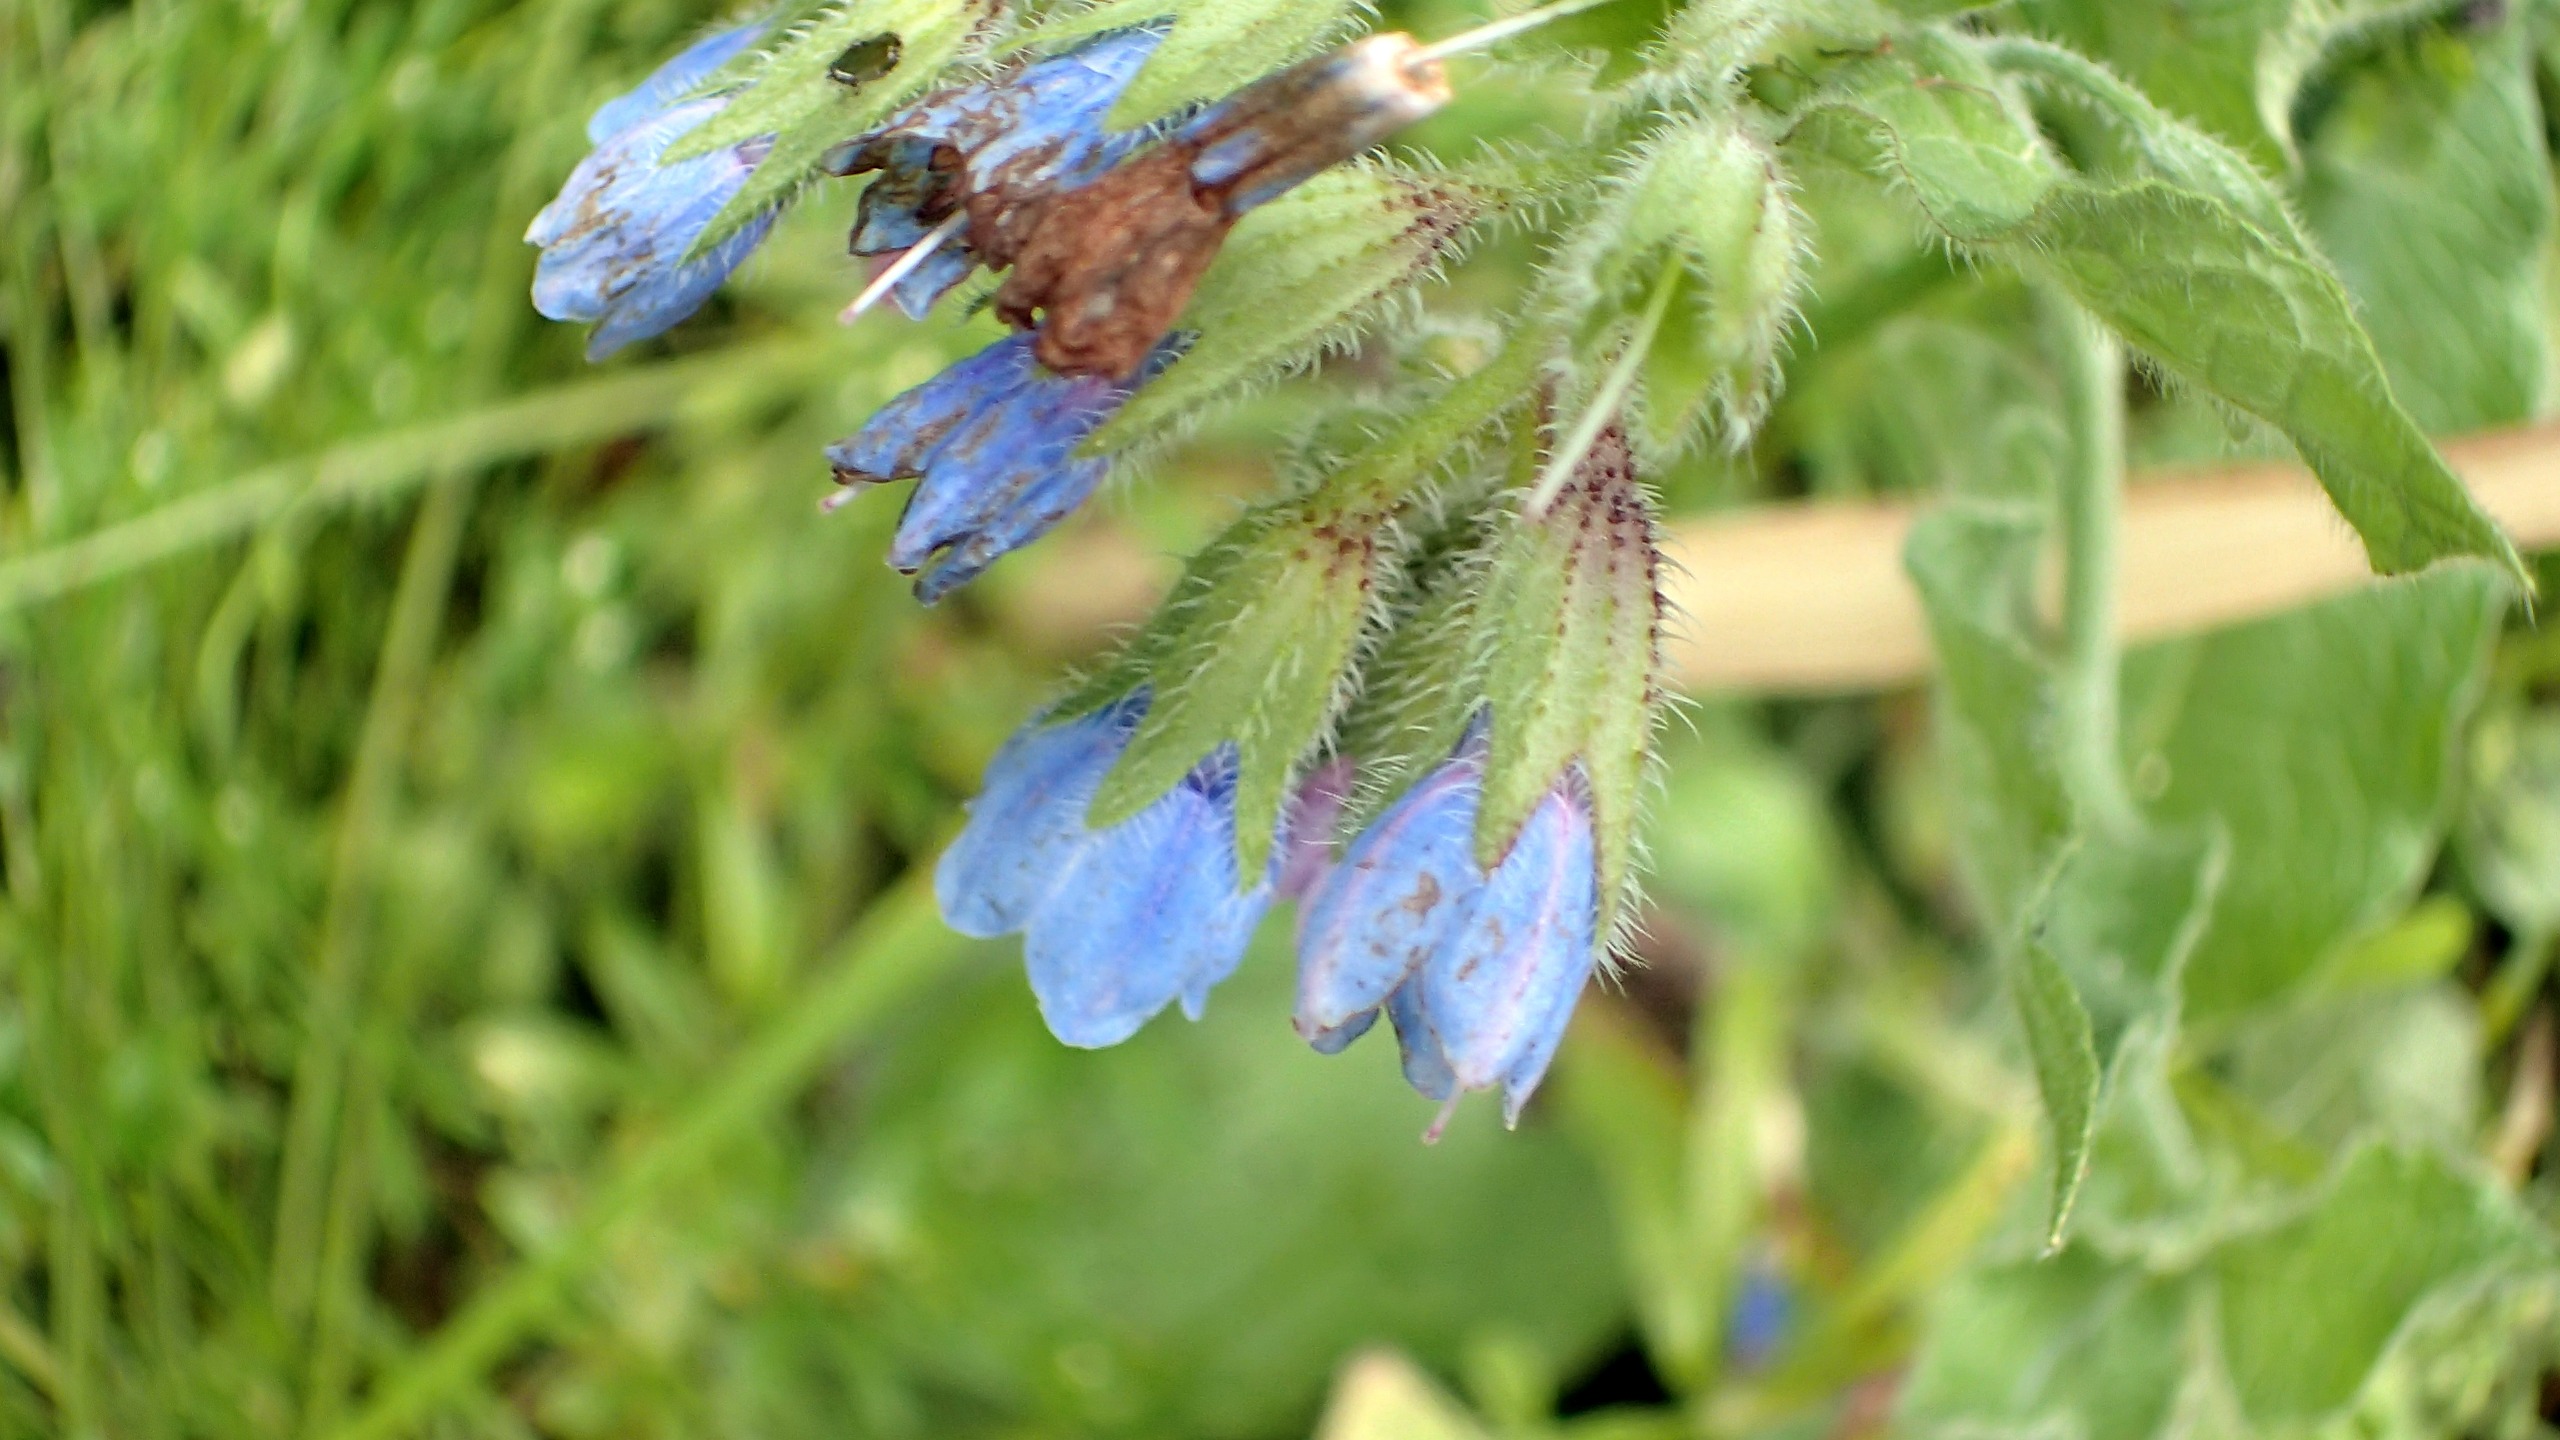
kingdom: Plantae
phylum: Tracheophyta
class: Magnoliopsida
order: Boraginales
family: Boraginaceae
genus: Symphytum
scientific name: Symphytum caucasicum
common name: Kaukasisk kulsukker
